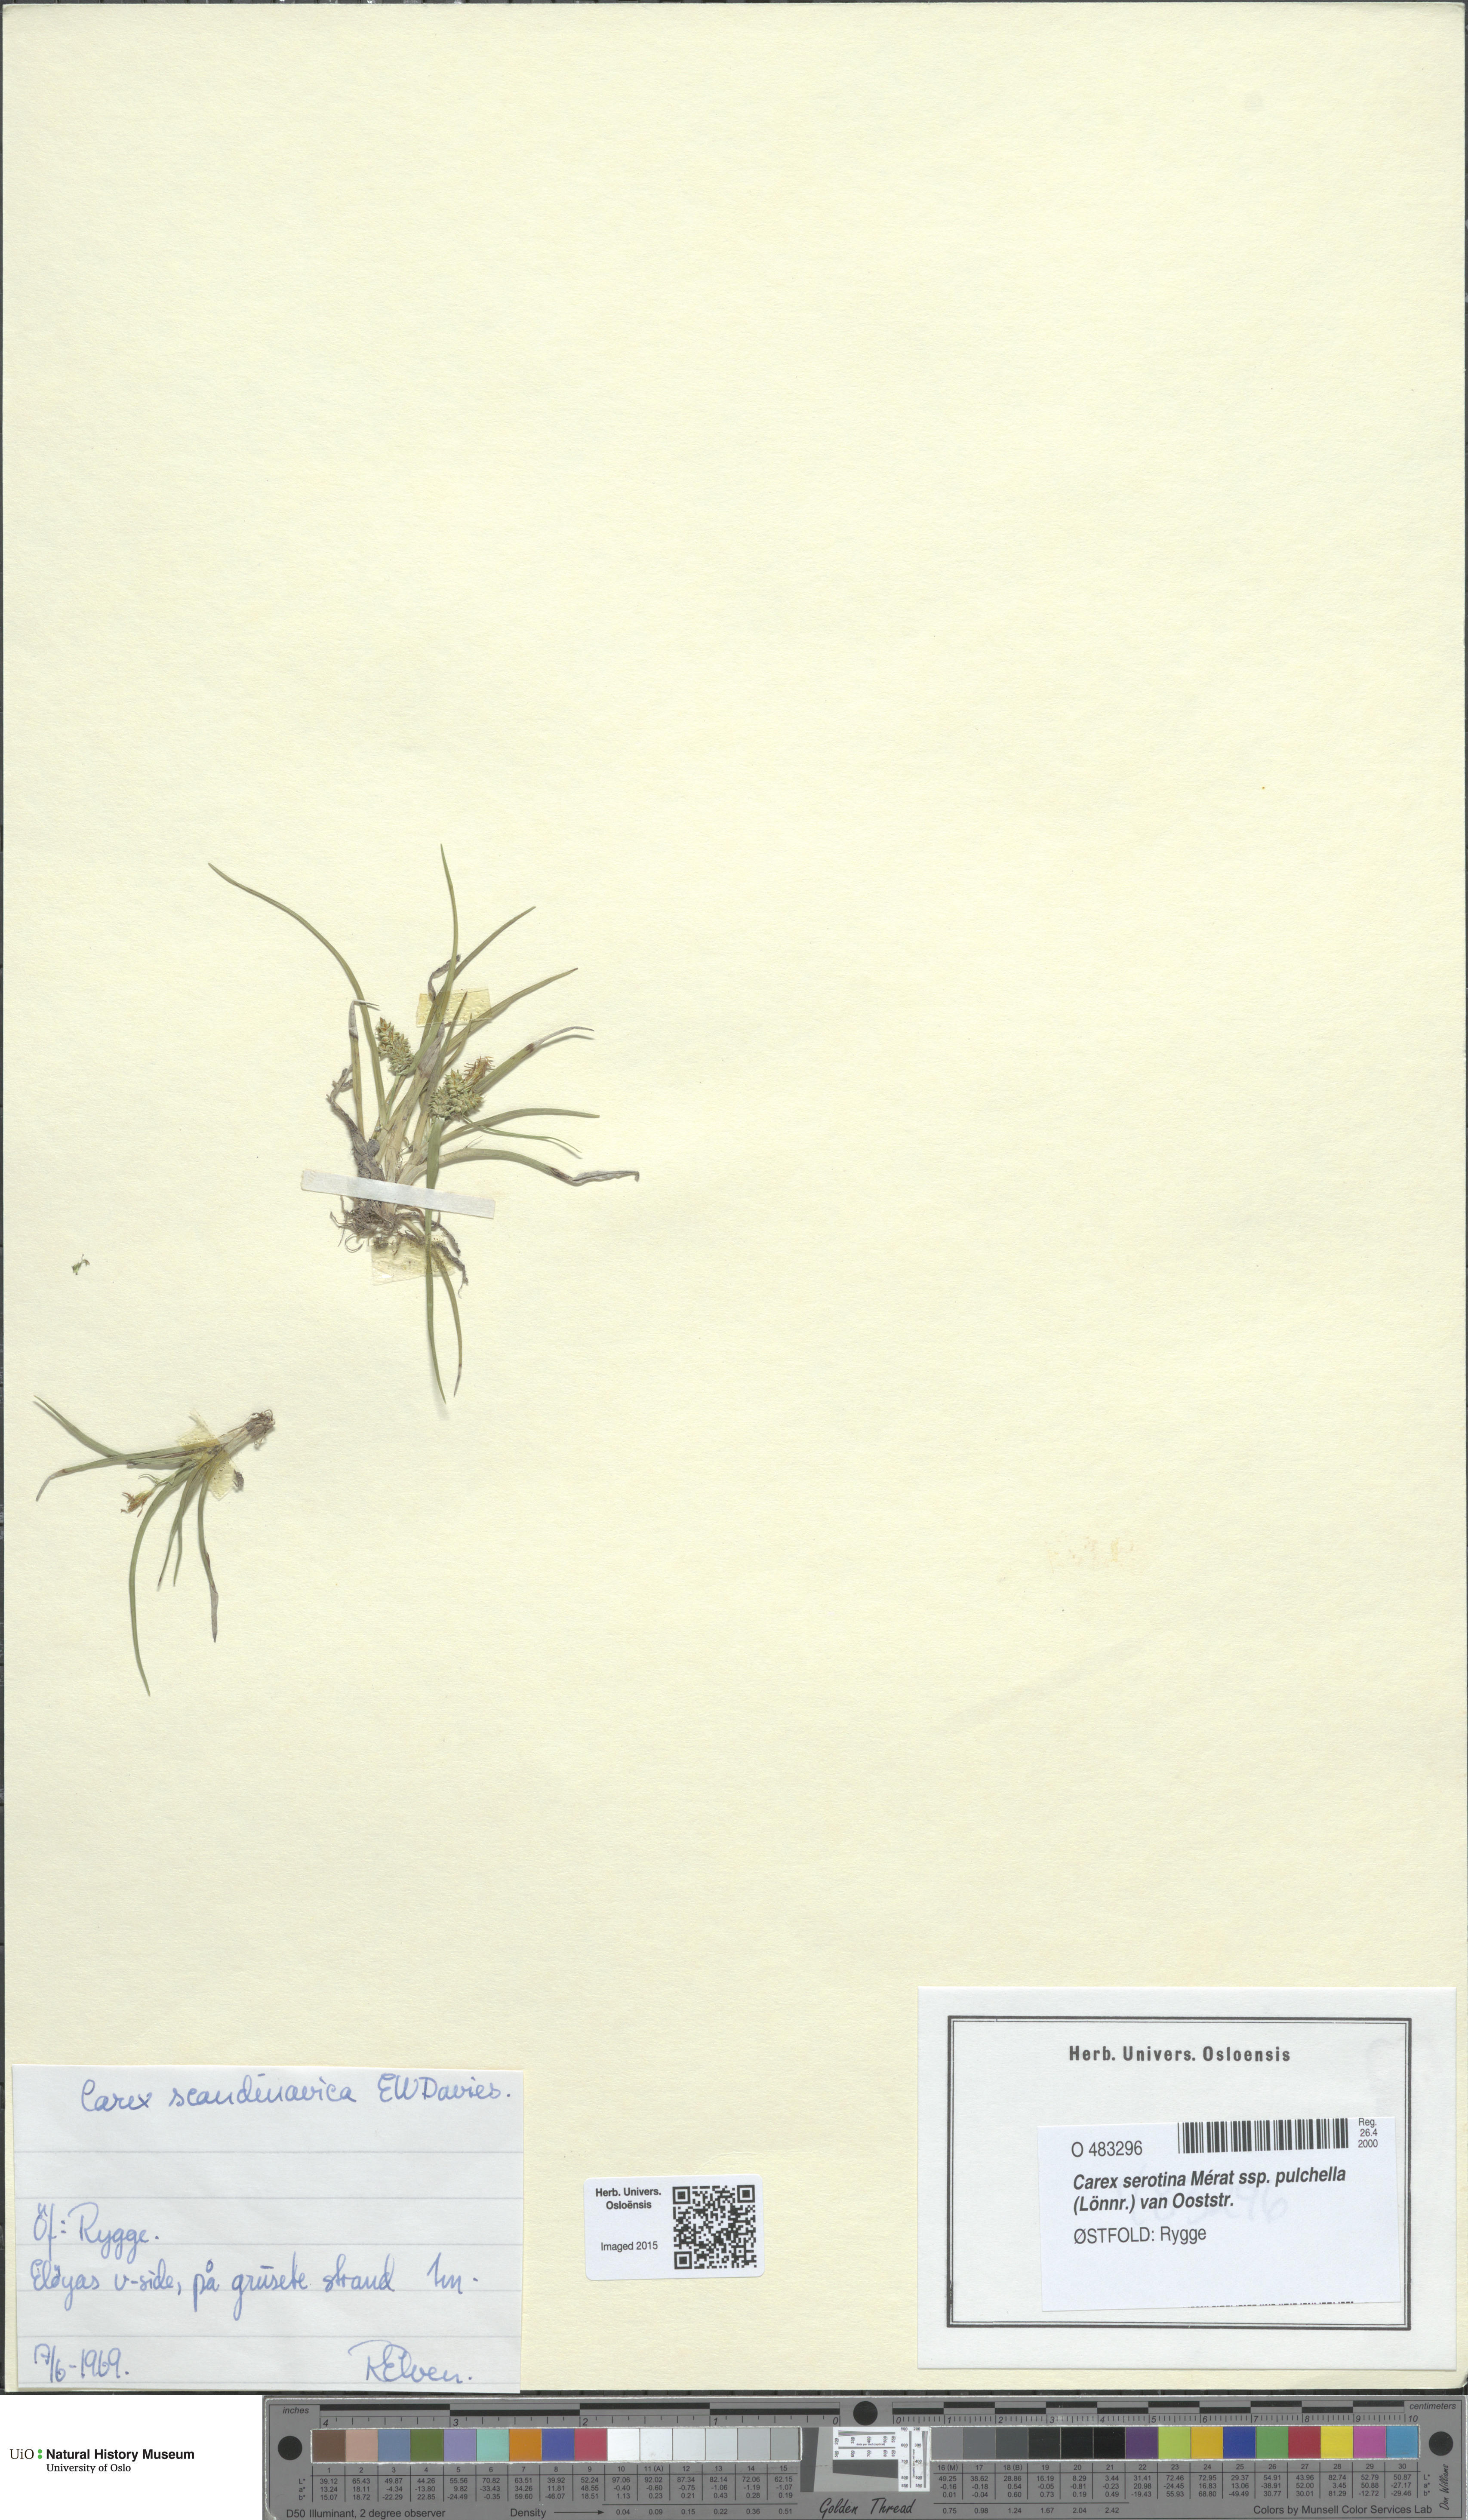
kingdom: Plantae
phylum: Tracheophyta
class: Liliopsida
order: Poales
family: Cyperaceae
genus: Carex
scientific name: Carex oederi
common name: Common & small-fruited yellow-sedge
